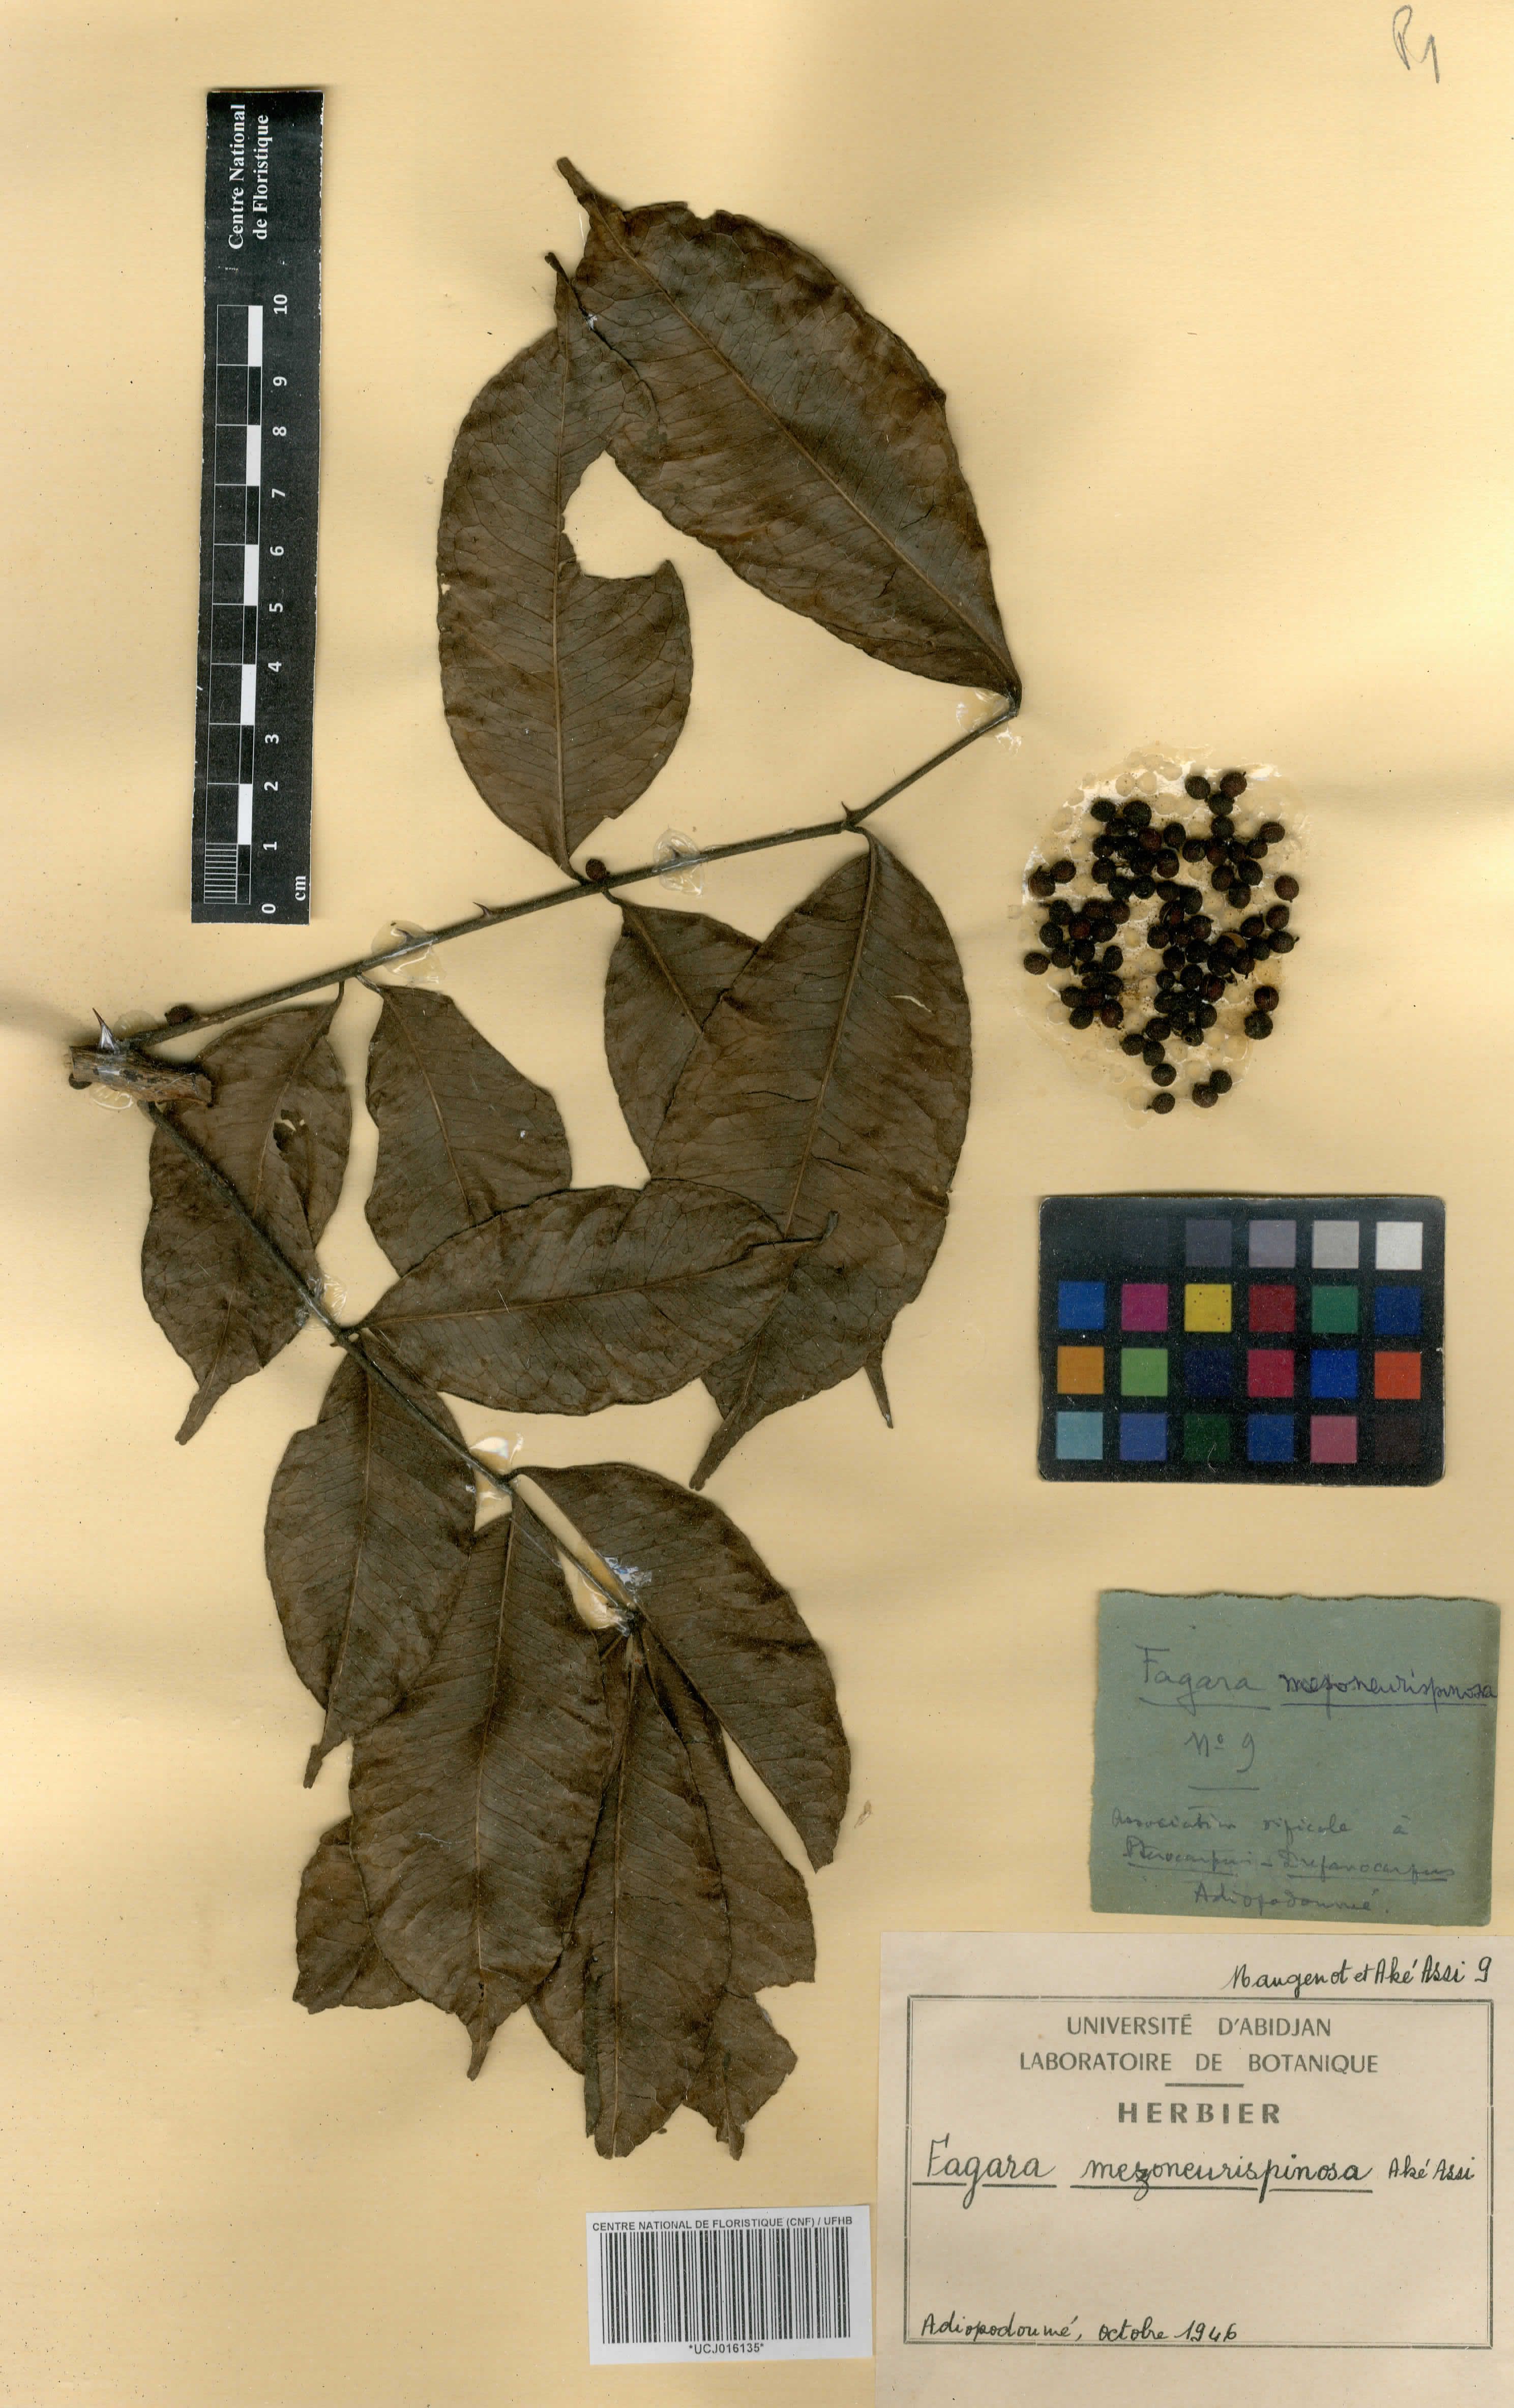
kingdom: Plantae
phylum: Tracheophyta
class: Magnoliopsida
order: Sapindales
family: Rutaceae
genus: Zanthoxylum
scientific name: Zanthoxylum mezoneurispinosum
